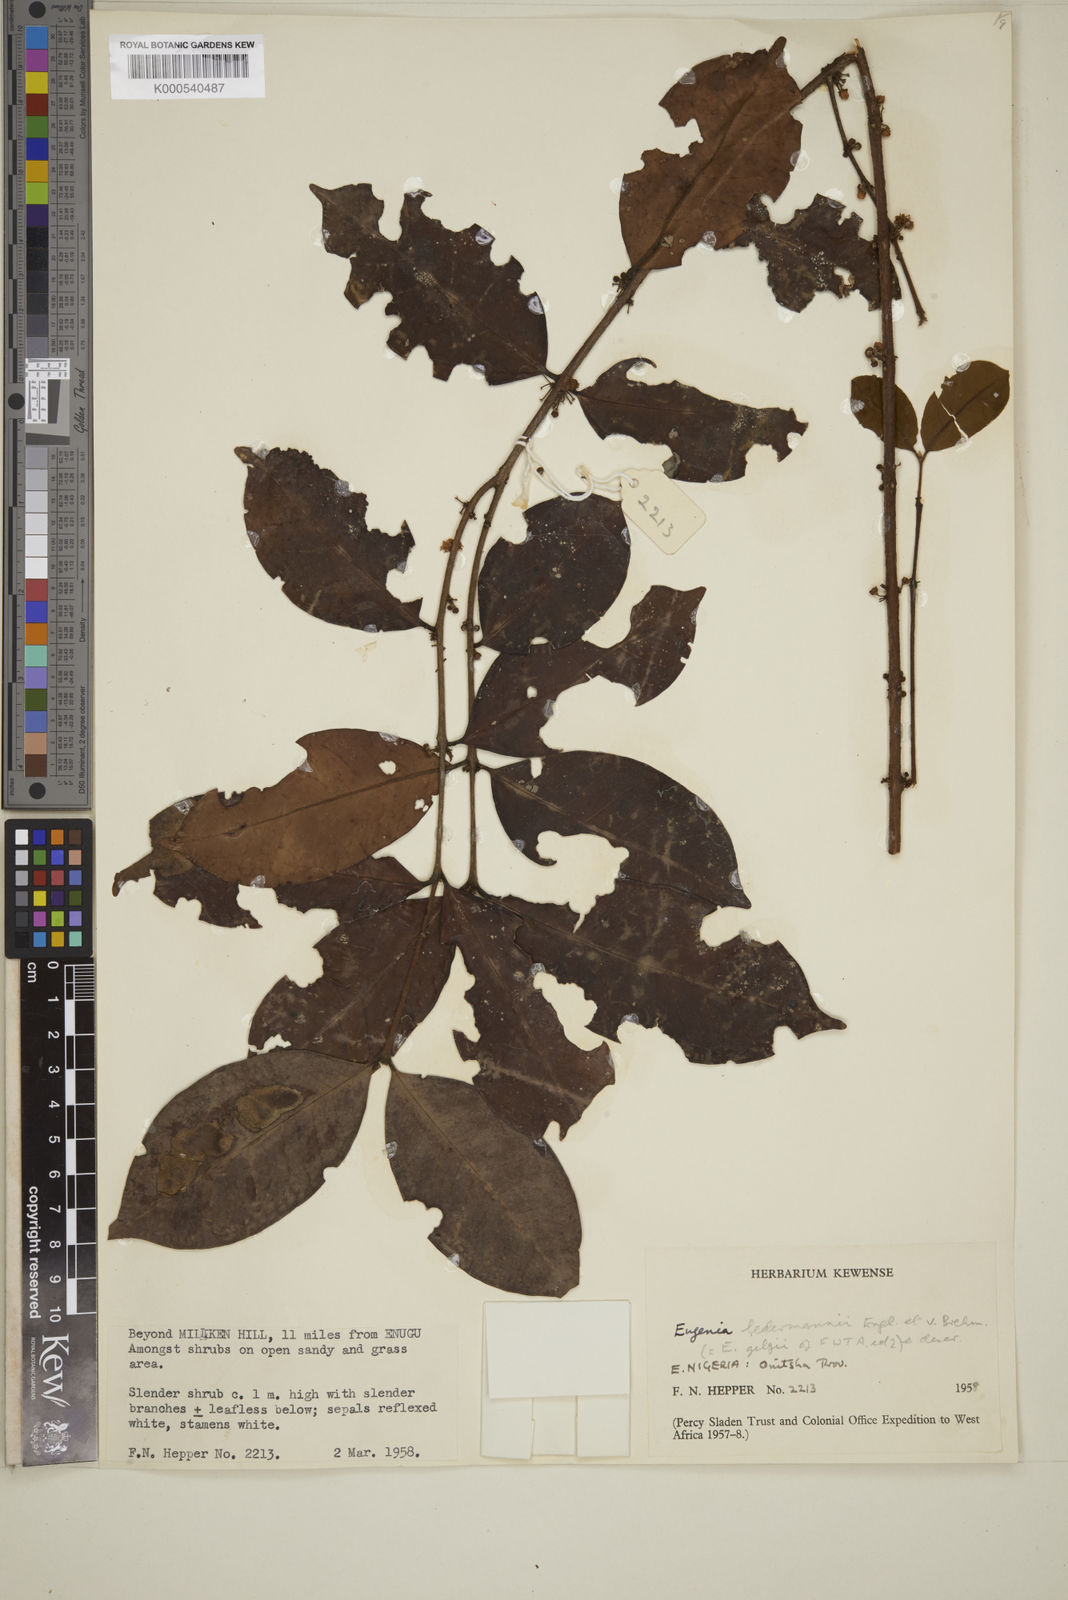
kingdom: Plantae
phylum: Tracheophyta
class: Magnoliopsida
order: Myrtales
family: Myrtaceae
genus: Eugenia
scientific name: Eugenia ledermannii
